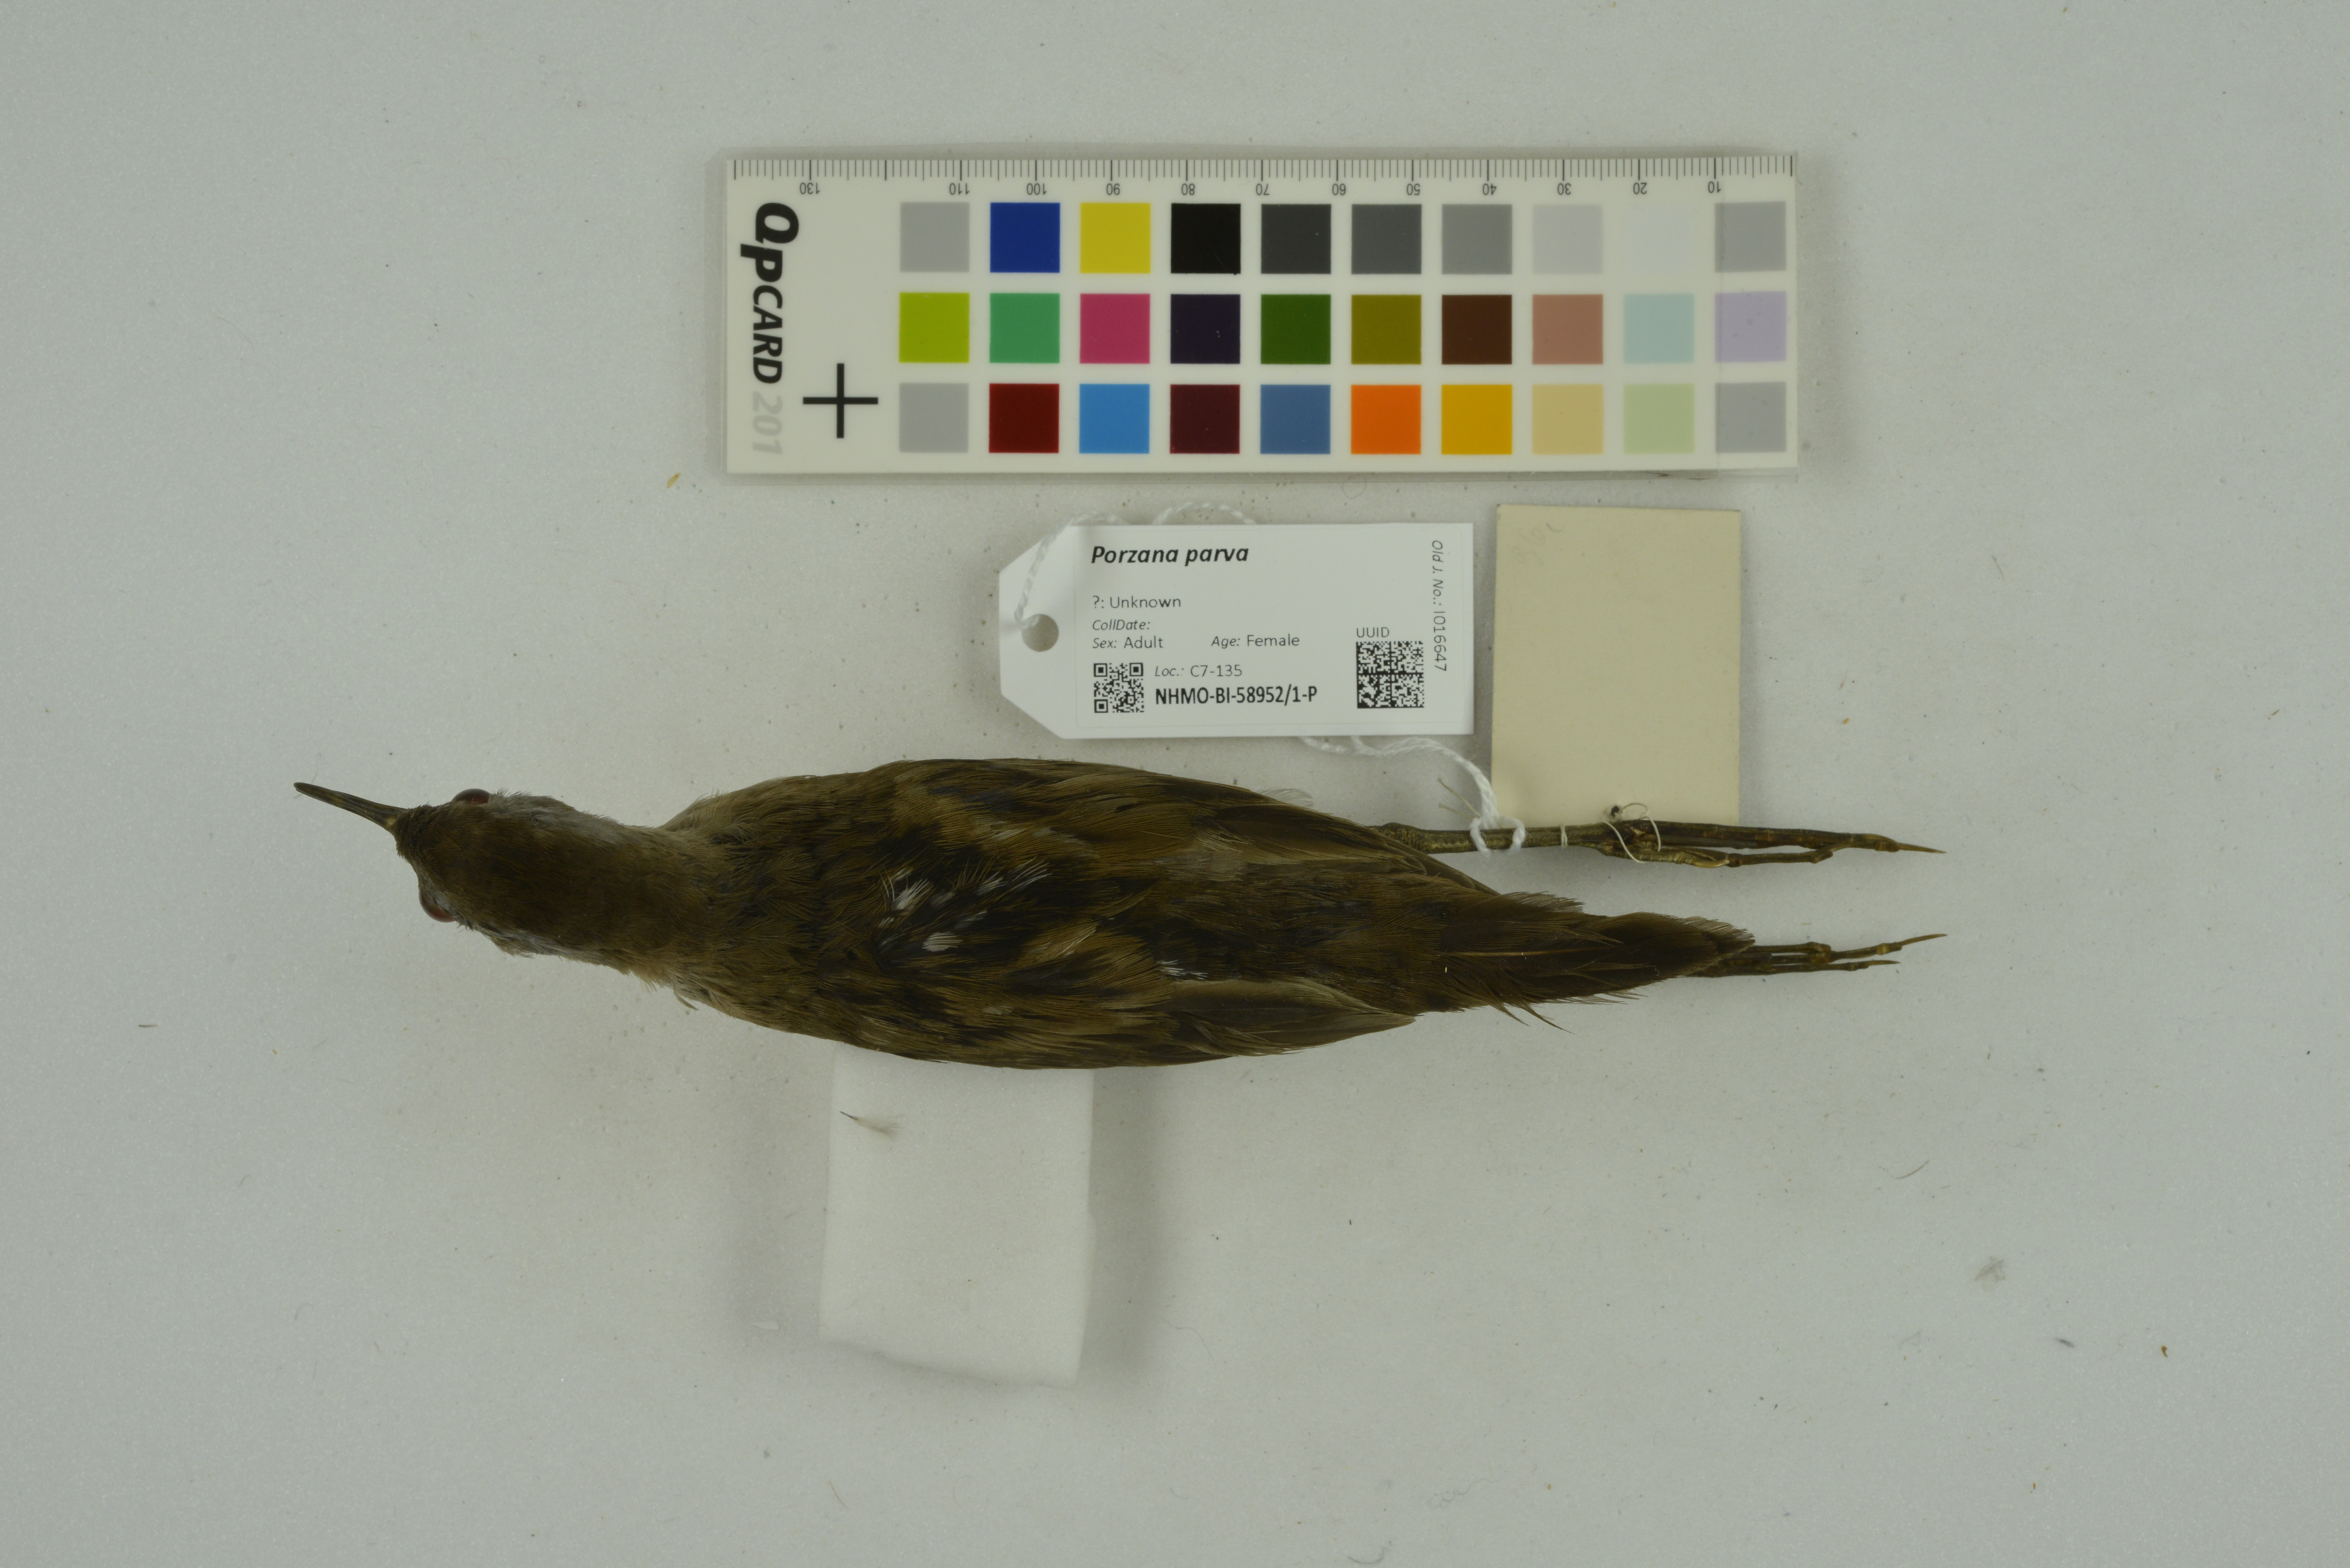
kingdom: Animalia
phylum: Chordata
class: Aves
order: Gruiformes
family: Rallidae
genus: Porzana
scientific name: Porzana parva
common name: Little crake
